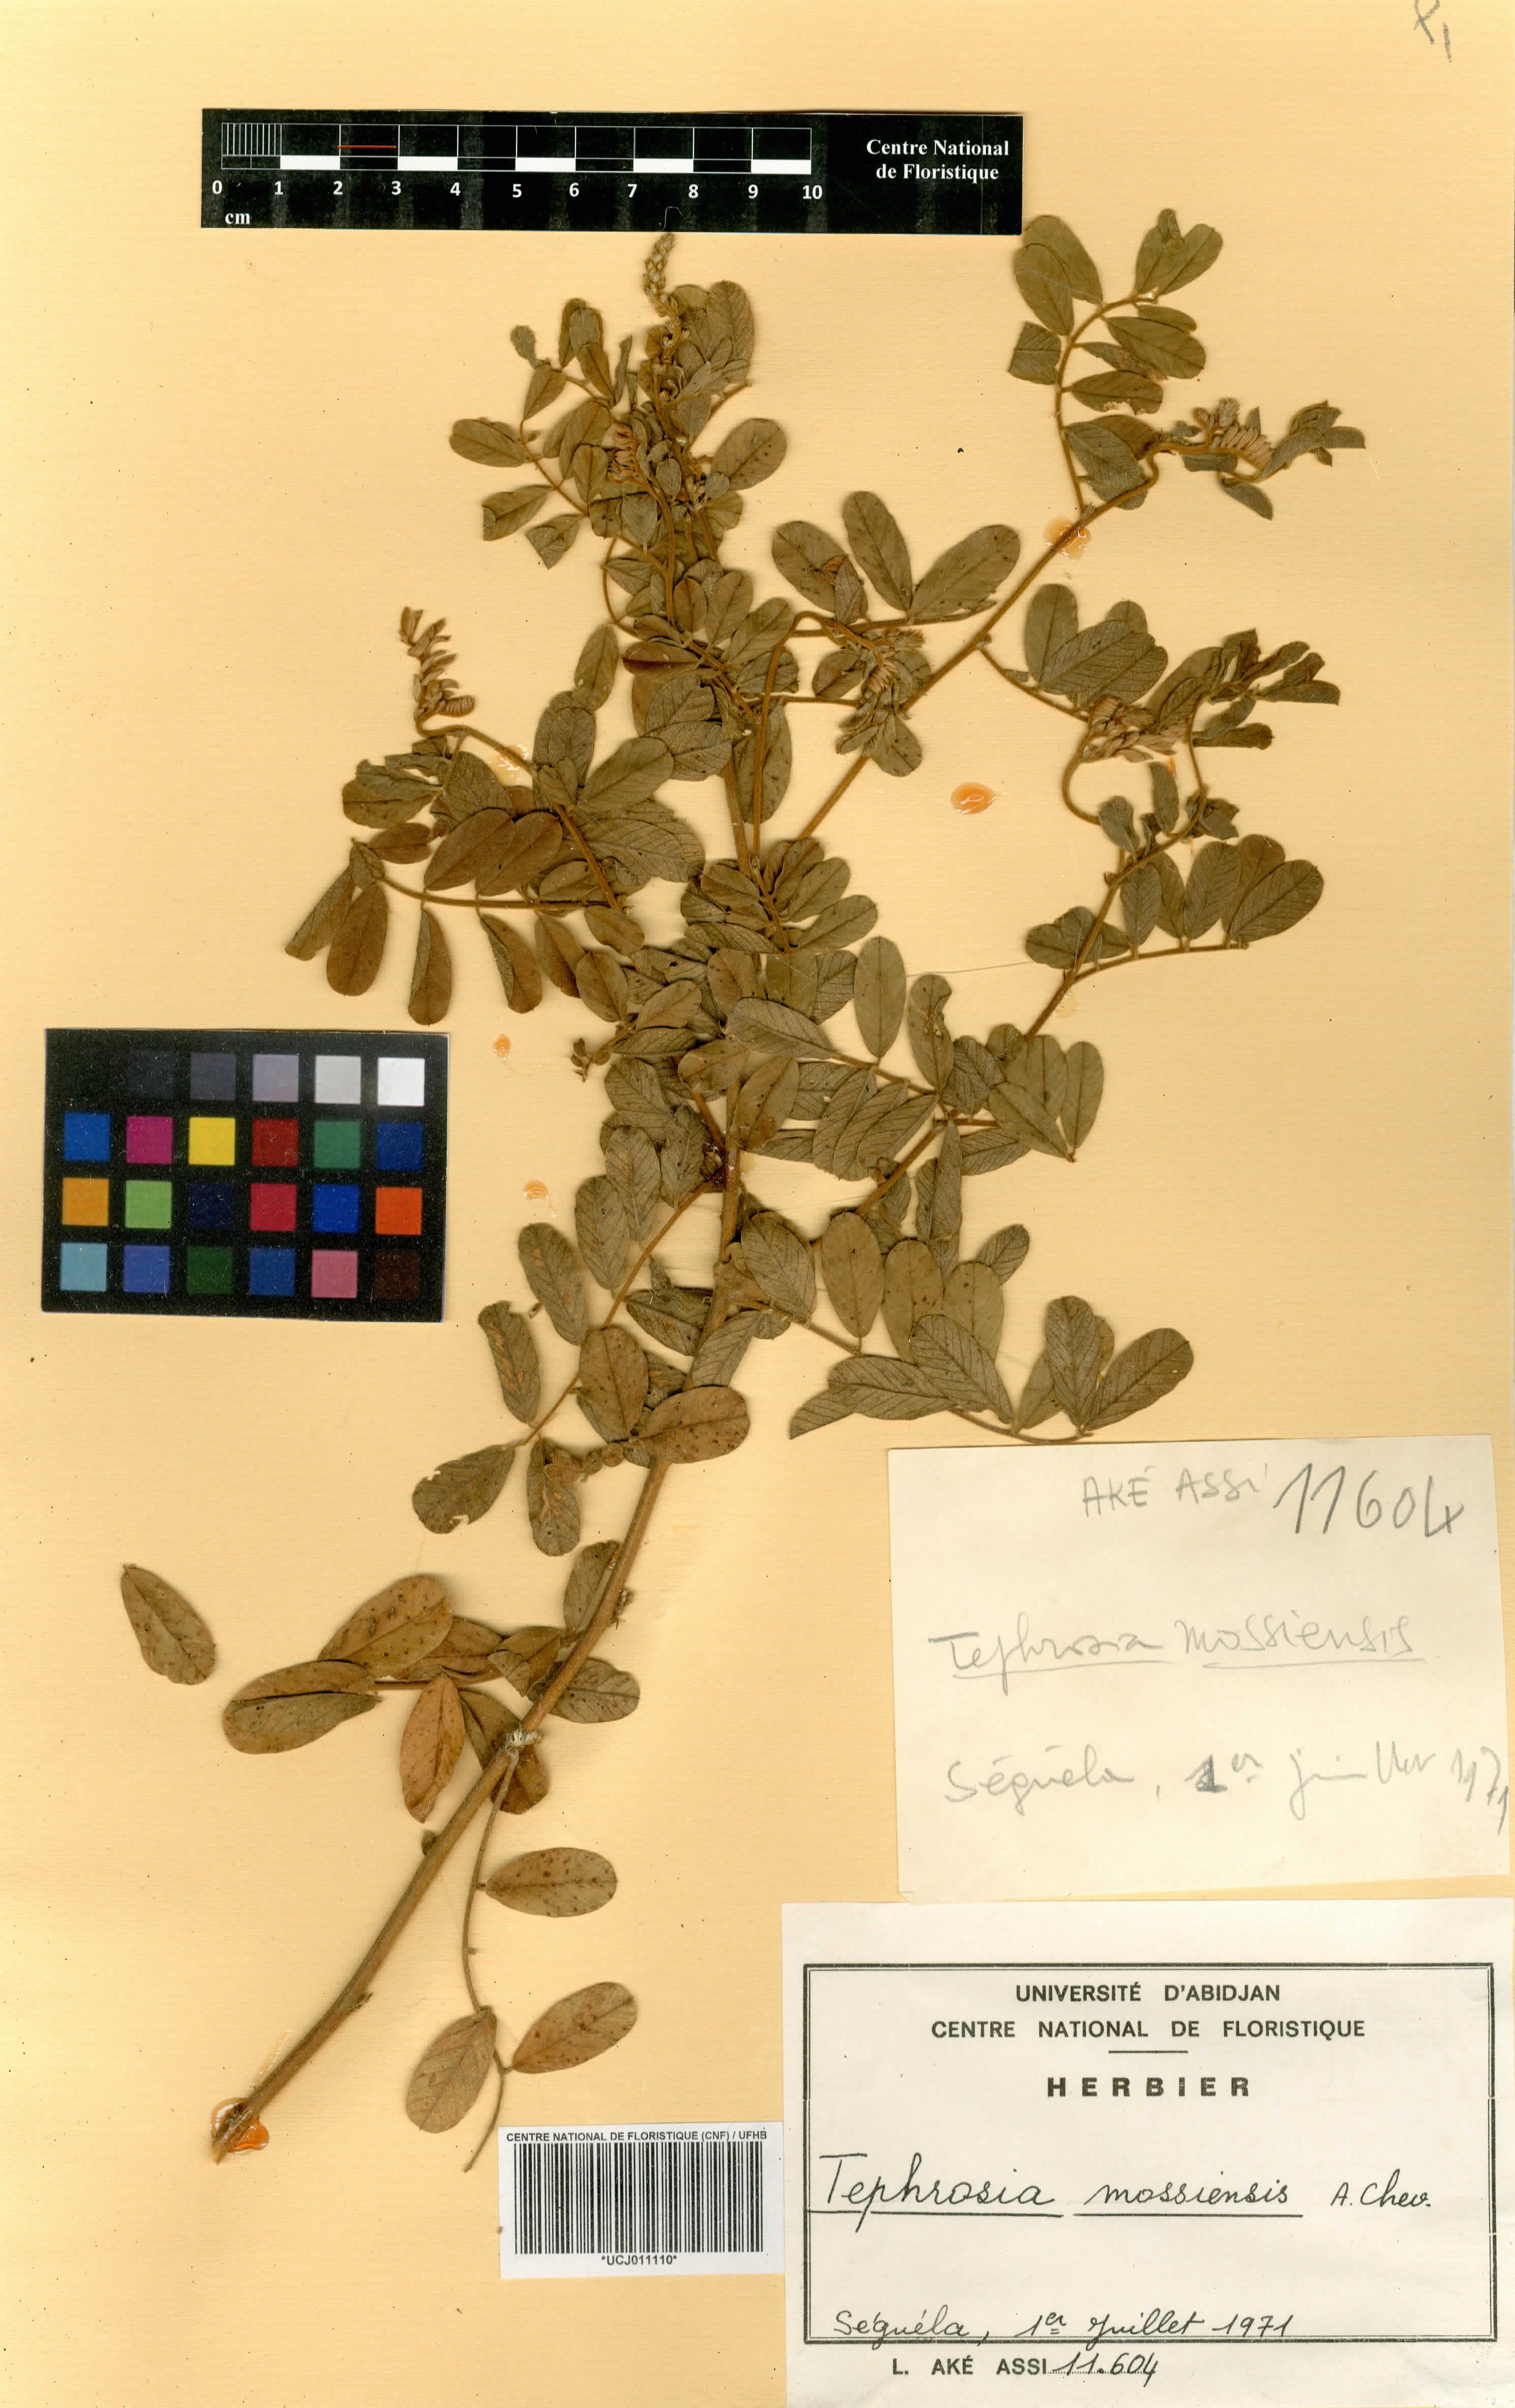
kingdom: Plantae
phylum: Tracheophyta
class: Magnoliopsida
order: Fabales
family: Fabaceae
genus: Tephrosia
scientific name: Tephrosia mossiensis
